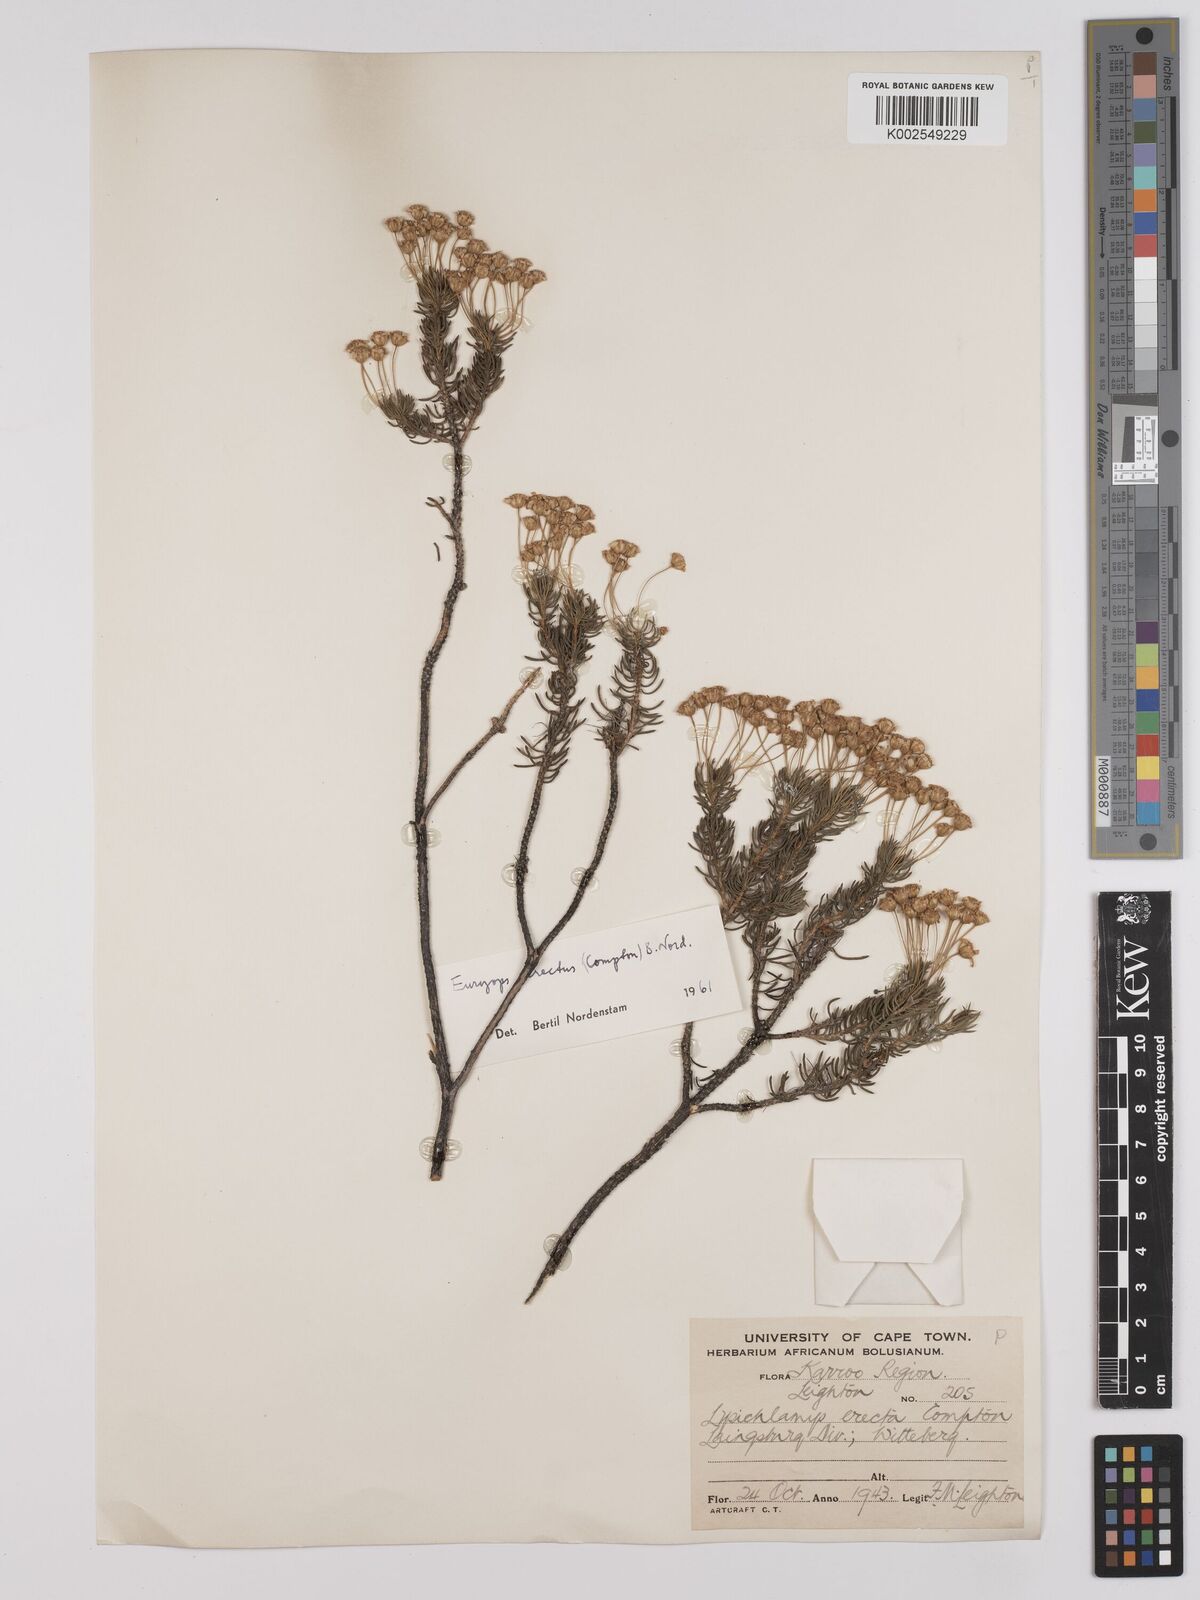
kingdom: Plantae
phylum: Tracheophyta
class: Magnoliopsida
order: Asterales
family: Asteraceae
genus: Euryops
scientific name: Euryops erectus
